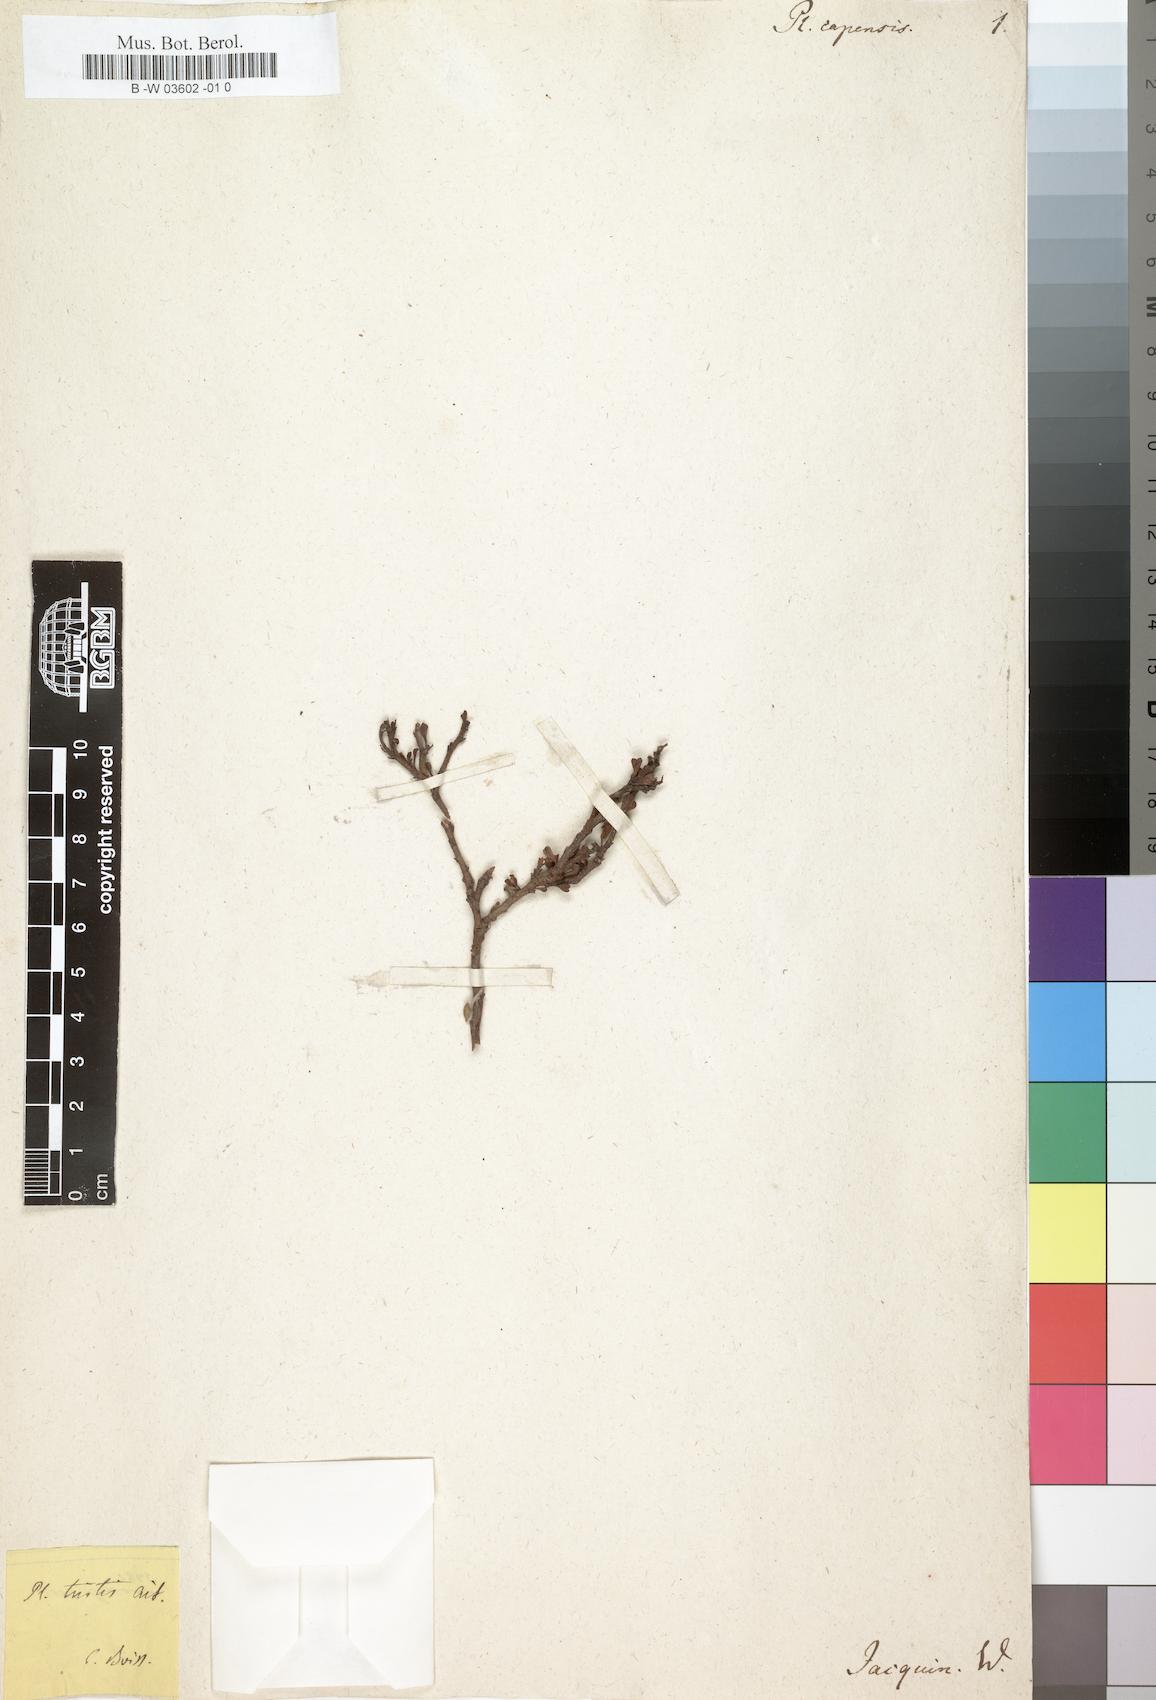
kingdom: Plantae
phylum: Tracheophyta
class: Magnoliopsida
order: Caryophyllales
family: Plumbaginaceae
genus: Plumbago
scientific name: Plumbago
